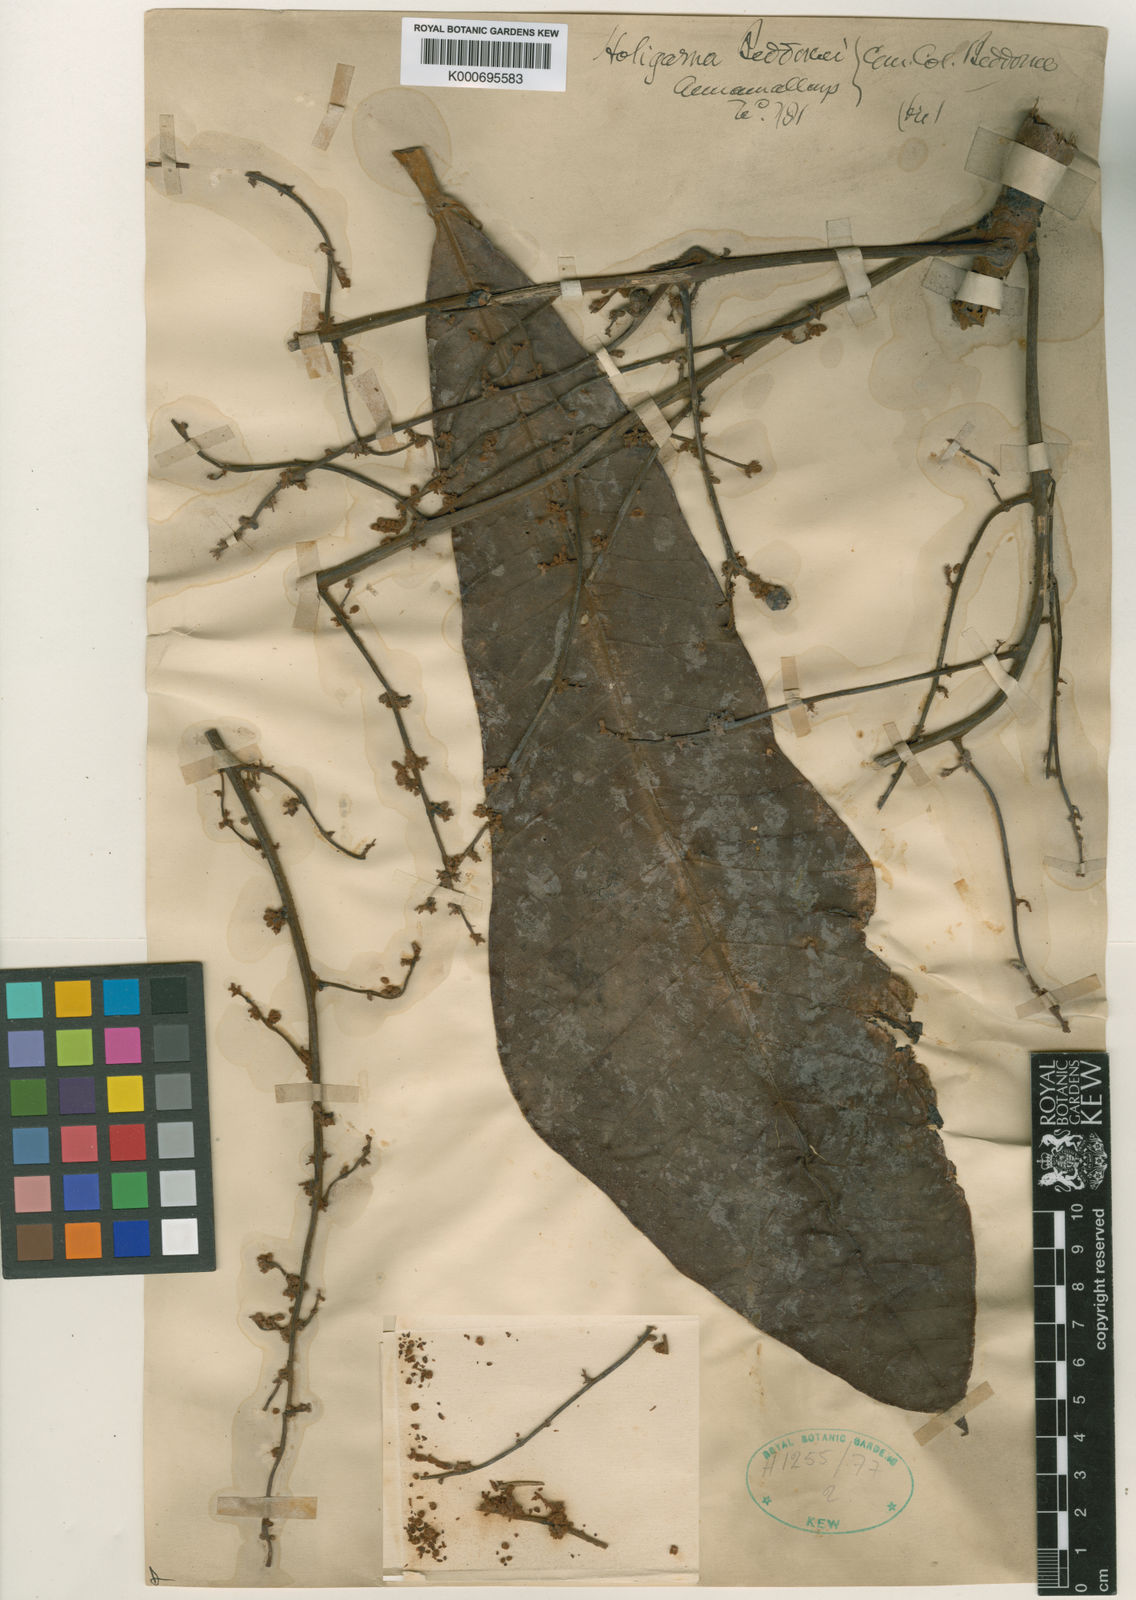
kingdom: Plantae
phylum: Tracheophyta
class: Magnoliopsida
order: Sapindales
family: Anacardiaceae
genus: Holigarna
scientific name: Holigarna beddomei
